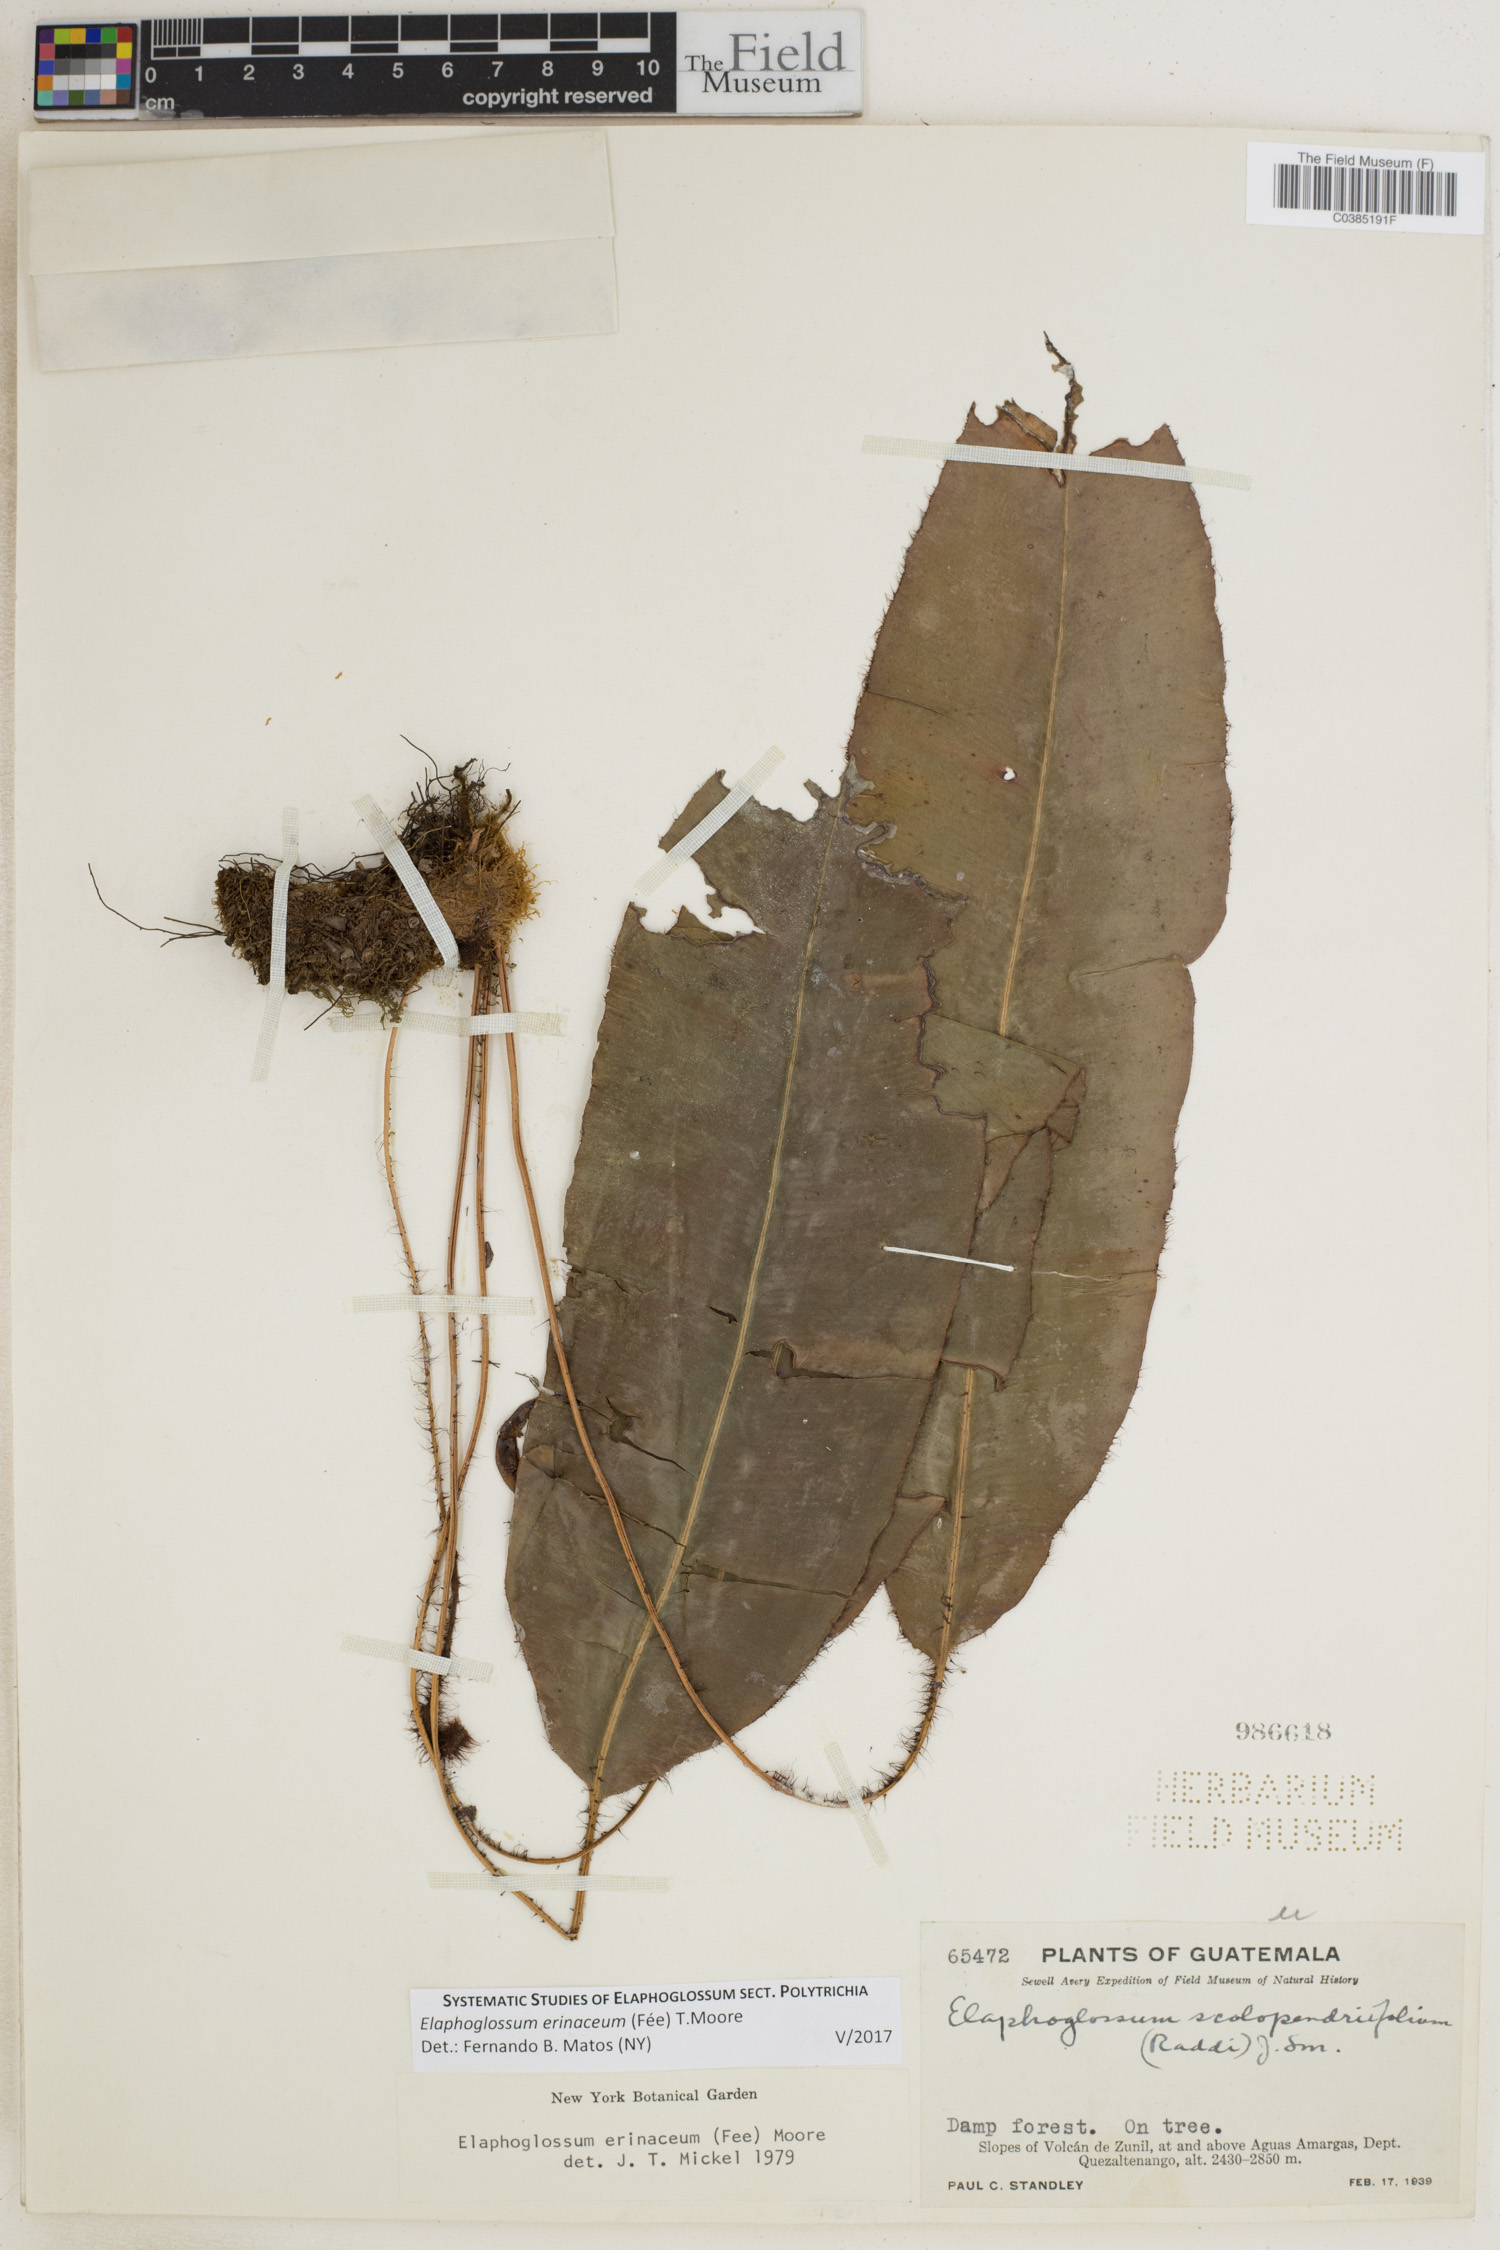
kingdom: Plantae
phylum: Tracheophyta
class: Polypodiopsida
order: Polypodiales
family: Dryopteridaceae
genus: Elaphoglossum
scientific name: Elaphoglossum erinaceum
